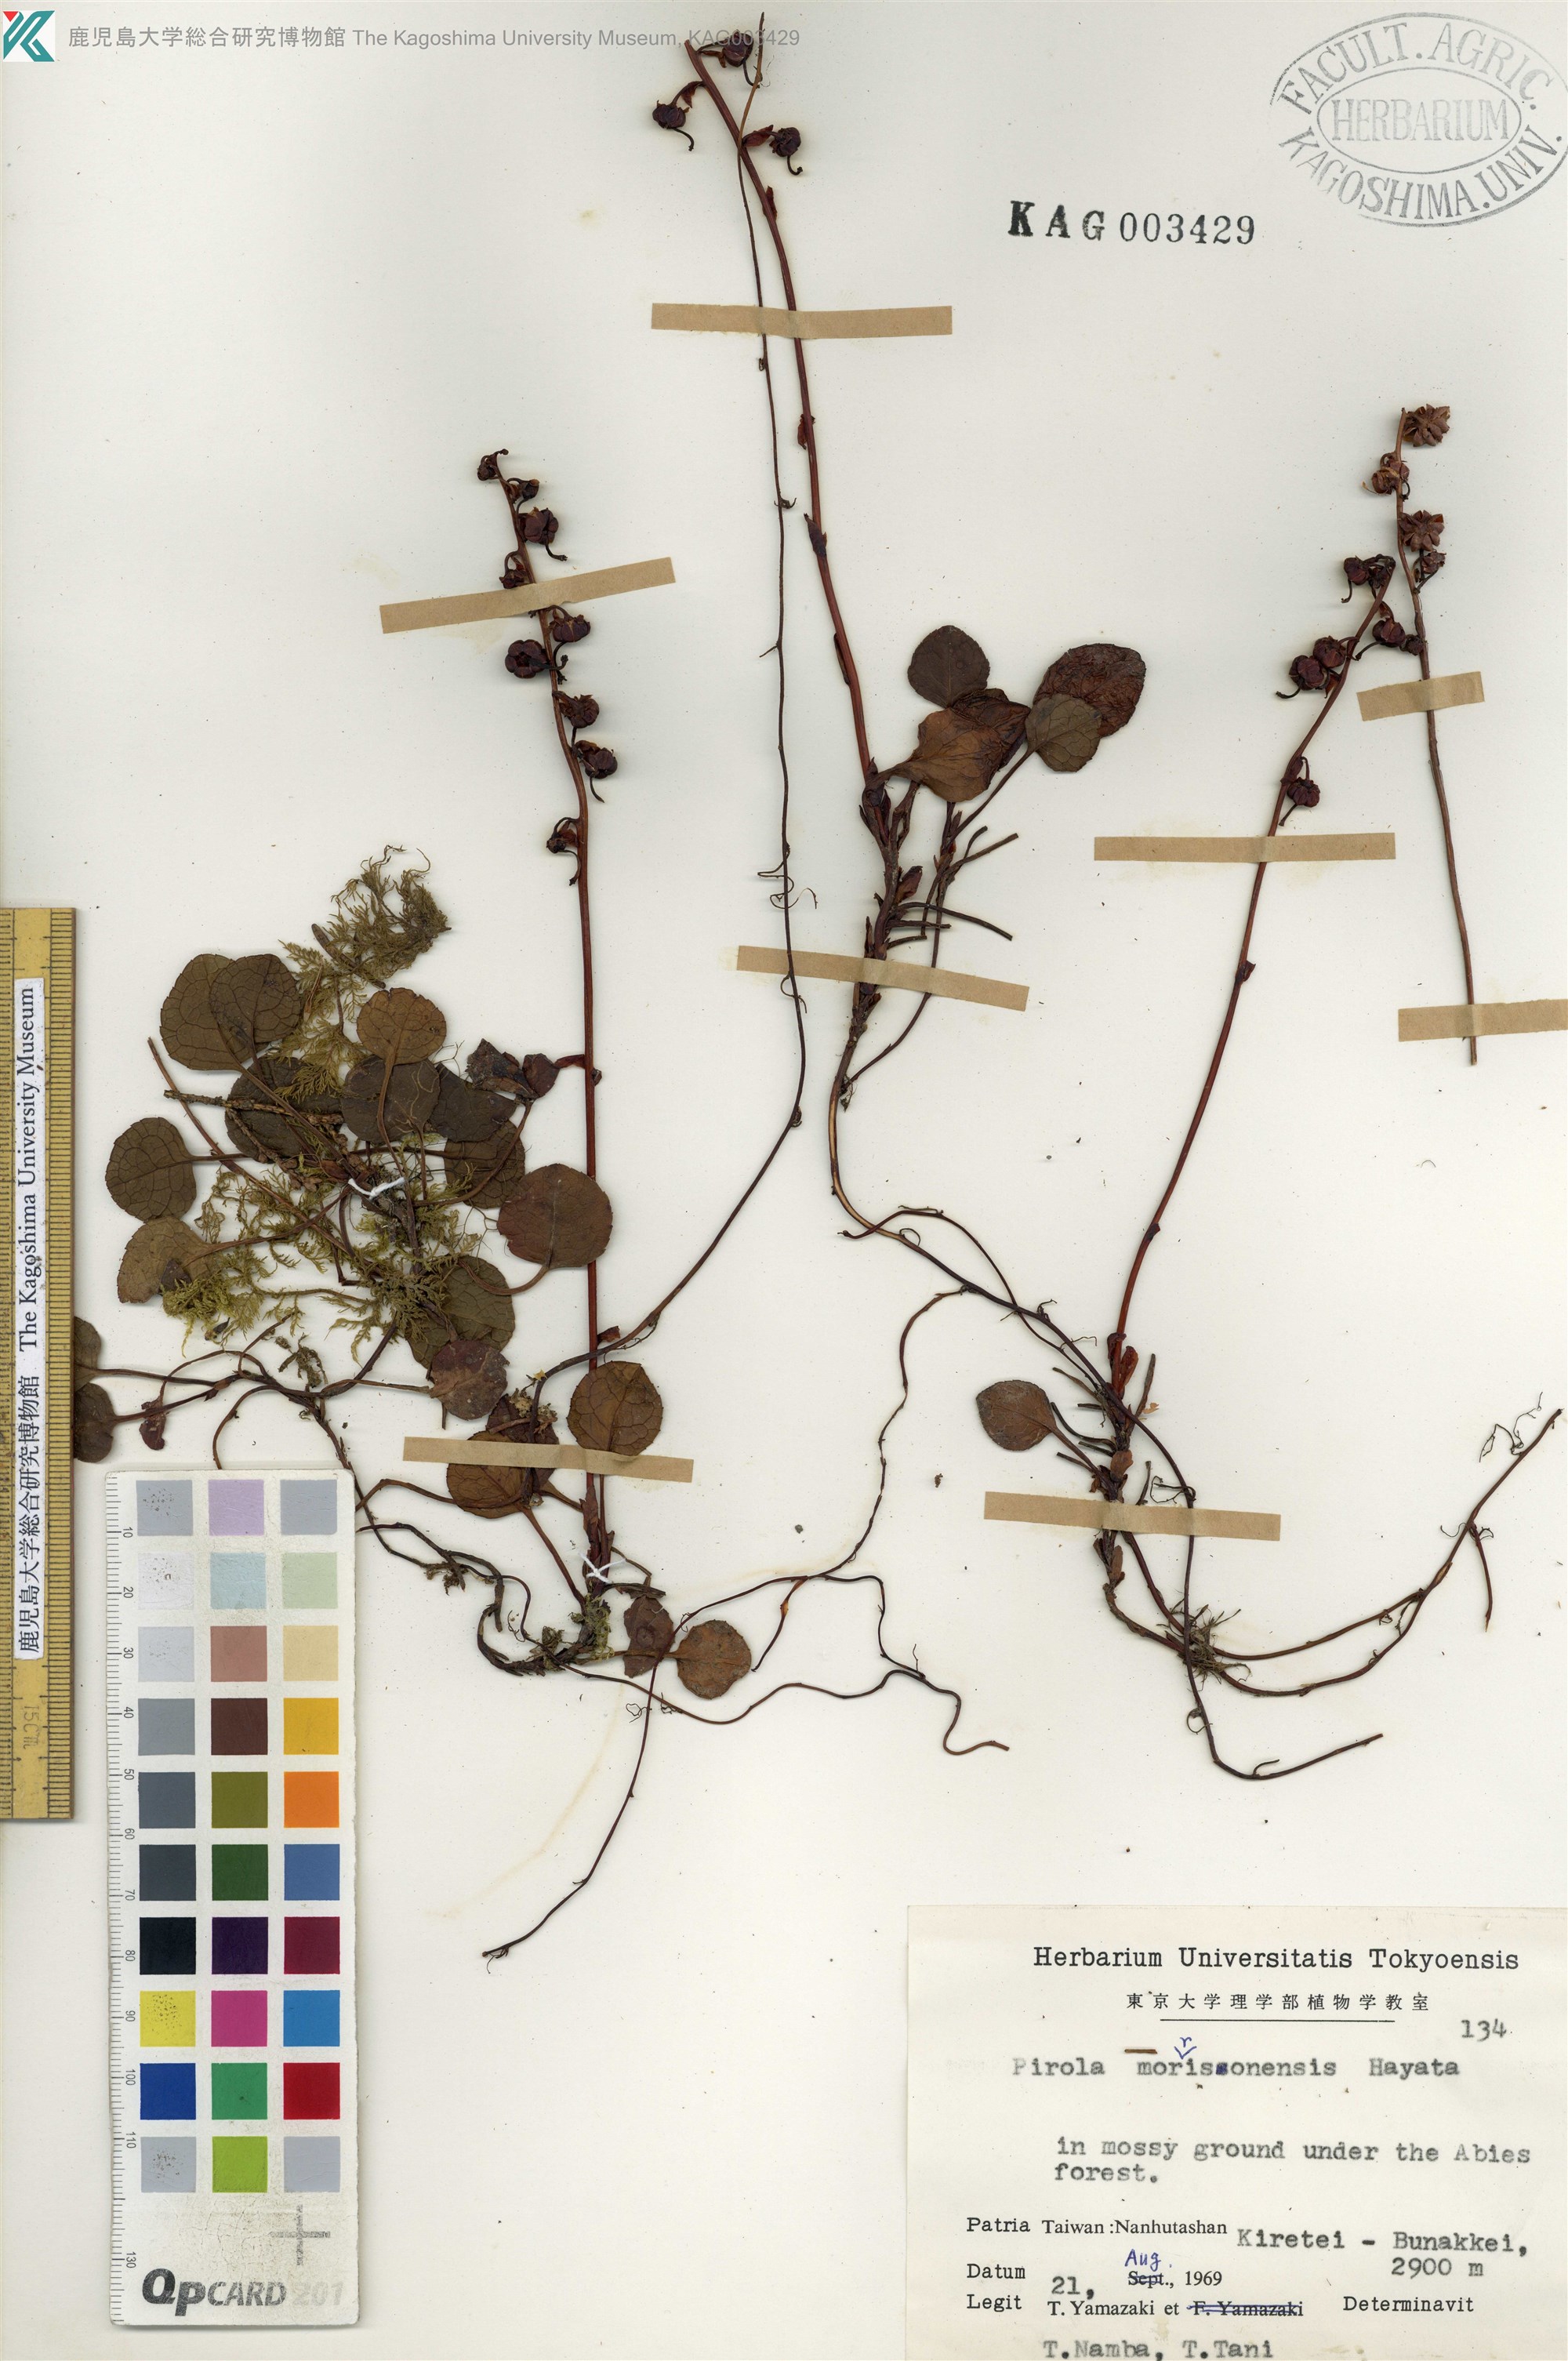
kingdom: Plantae
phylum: Tracheophyta
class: Magnoliopsida
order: Ericales
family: Ericaceae
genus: Pyrola
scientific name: Pyrola morrisonensis
